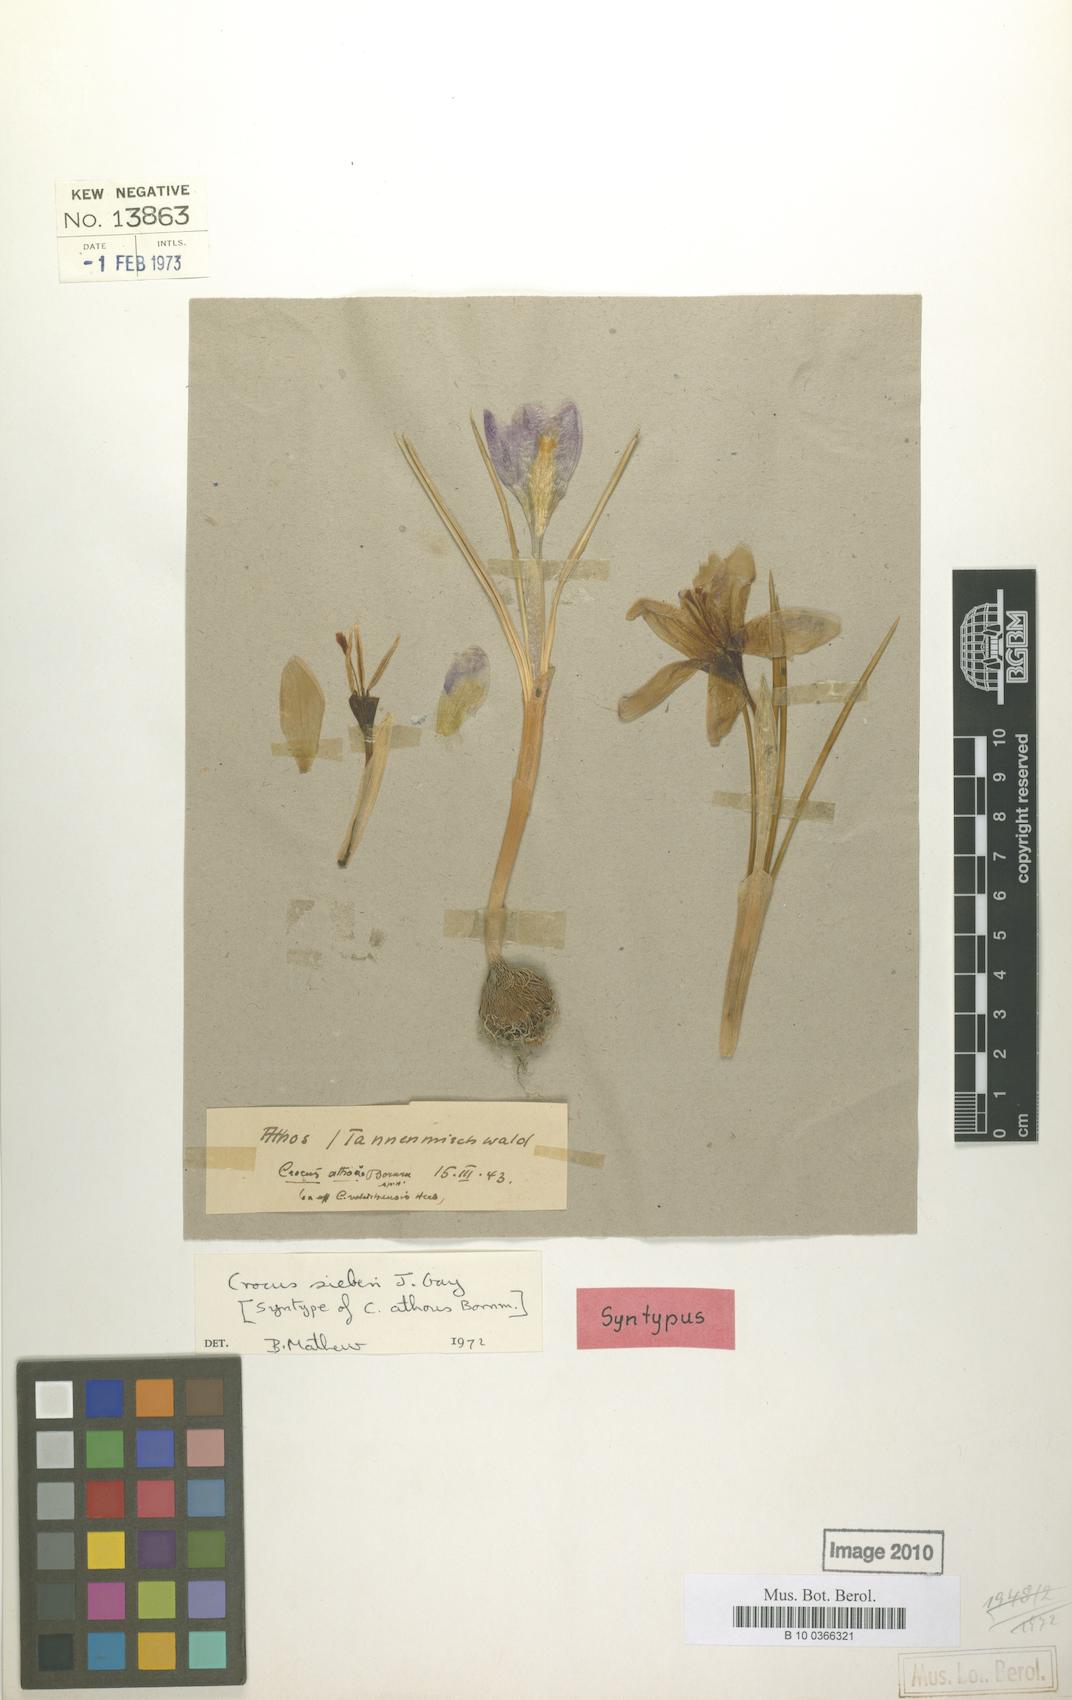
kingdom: Plantae
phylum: Tracheophyta
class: Liliopsida
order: Asparagales
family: Iridaceae
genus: Crocus
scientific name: Crocus
